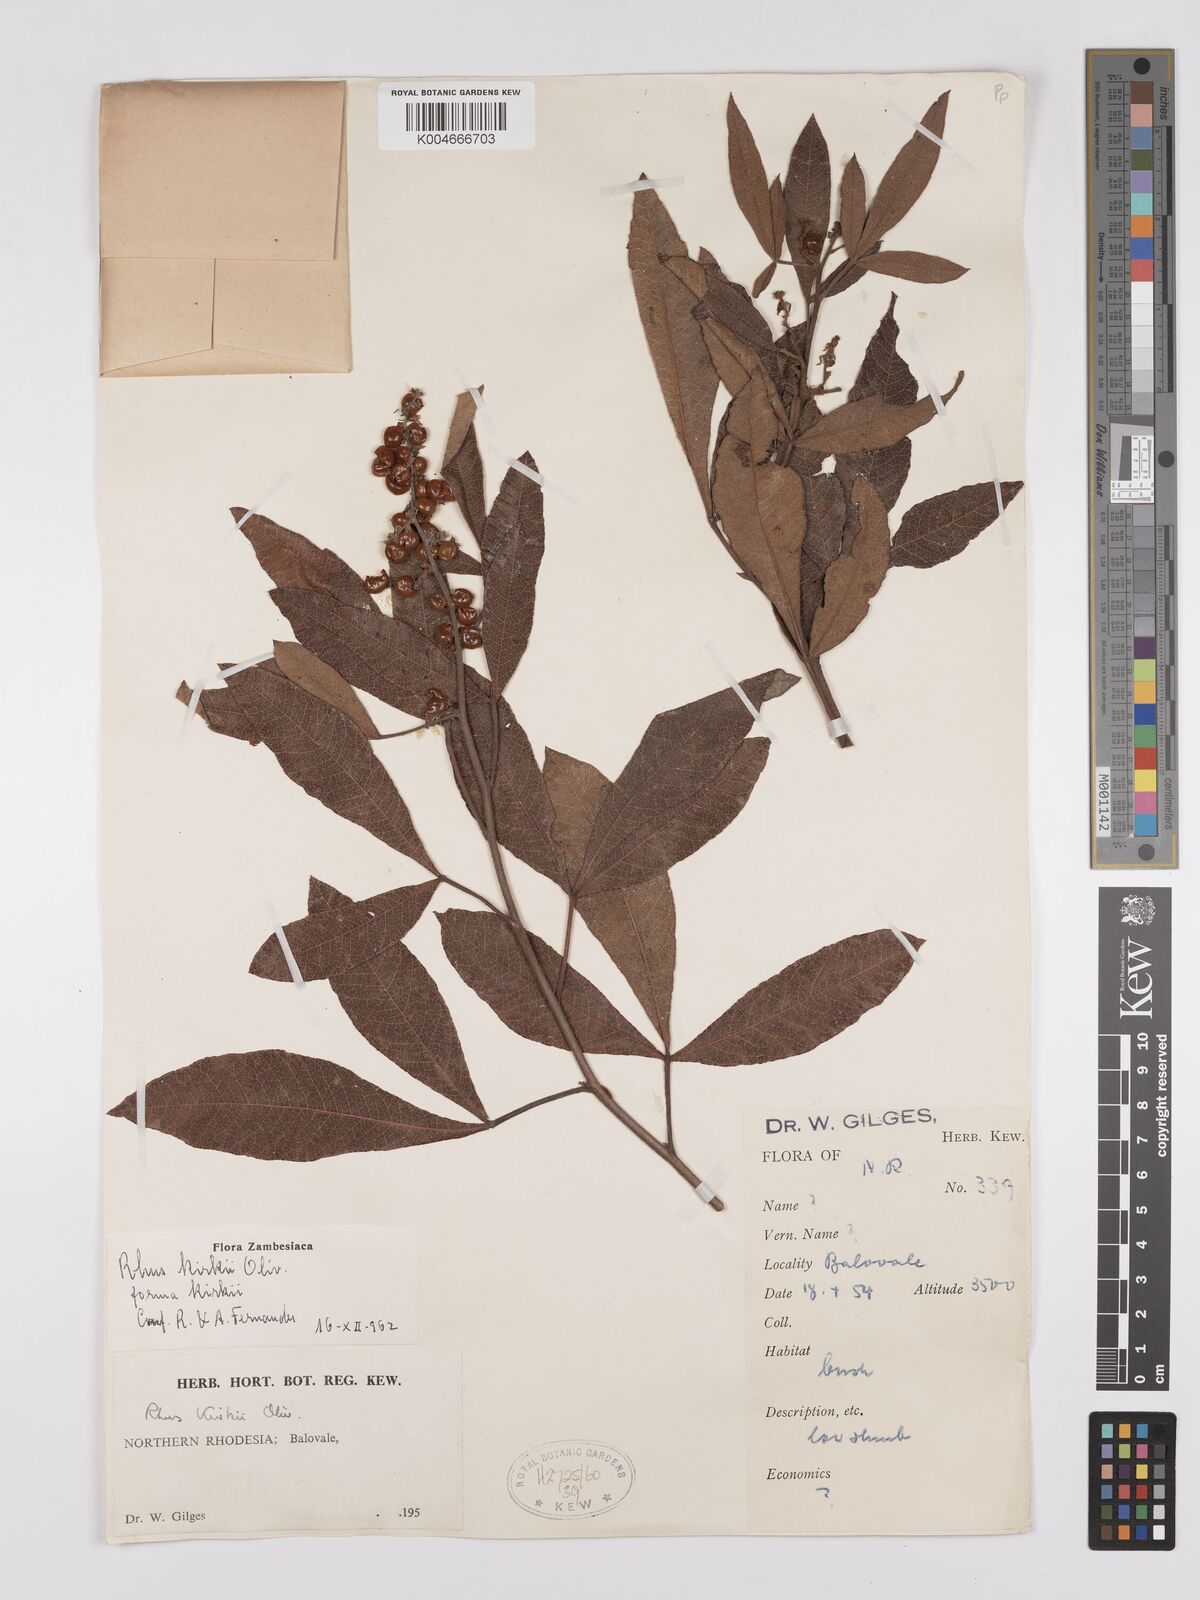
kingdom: Plantae
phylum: Tracheophyta
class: Magnoliopsida
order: Sapindales
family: Anacardiaceae
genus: Searsia
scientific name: Searsia kirkii
